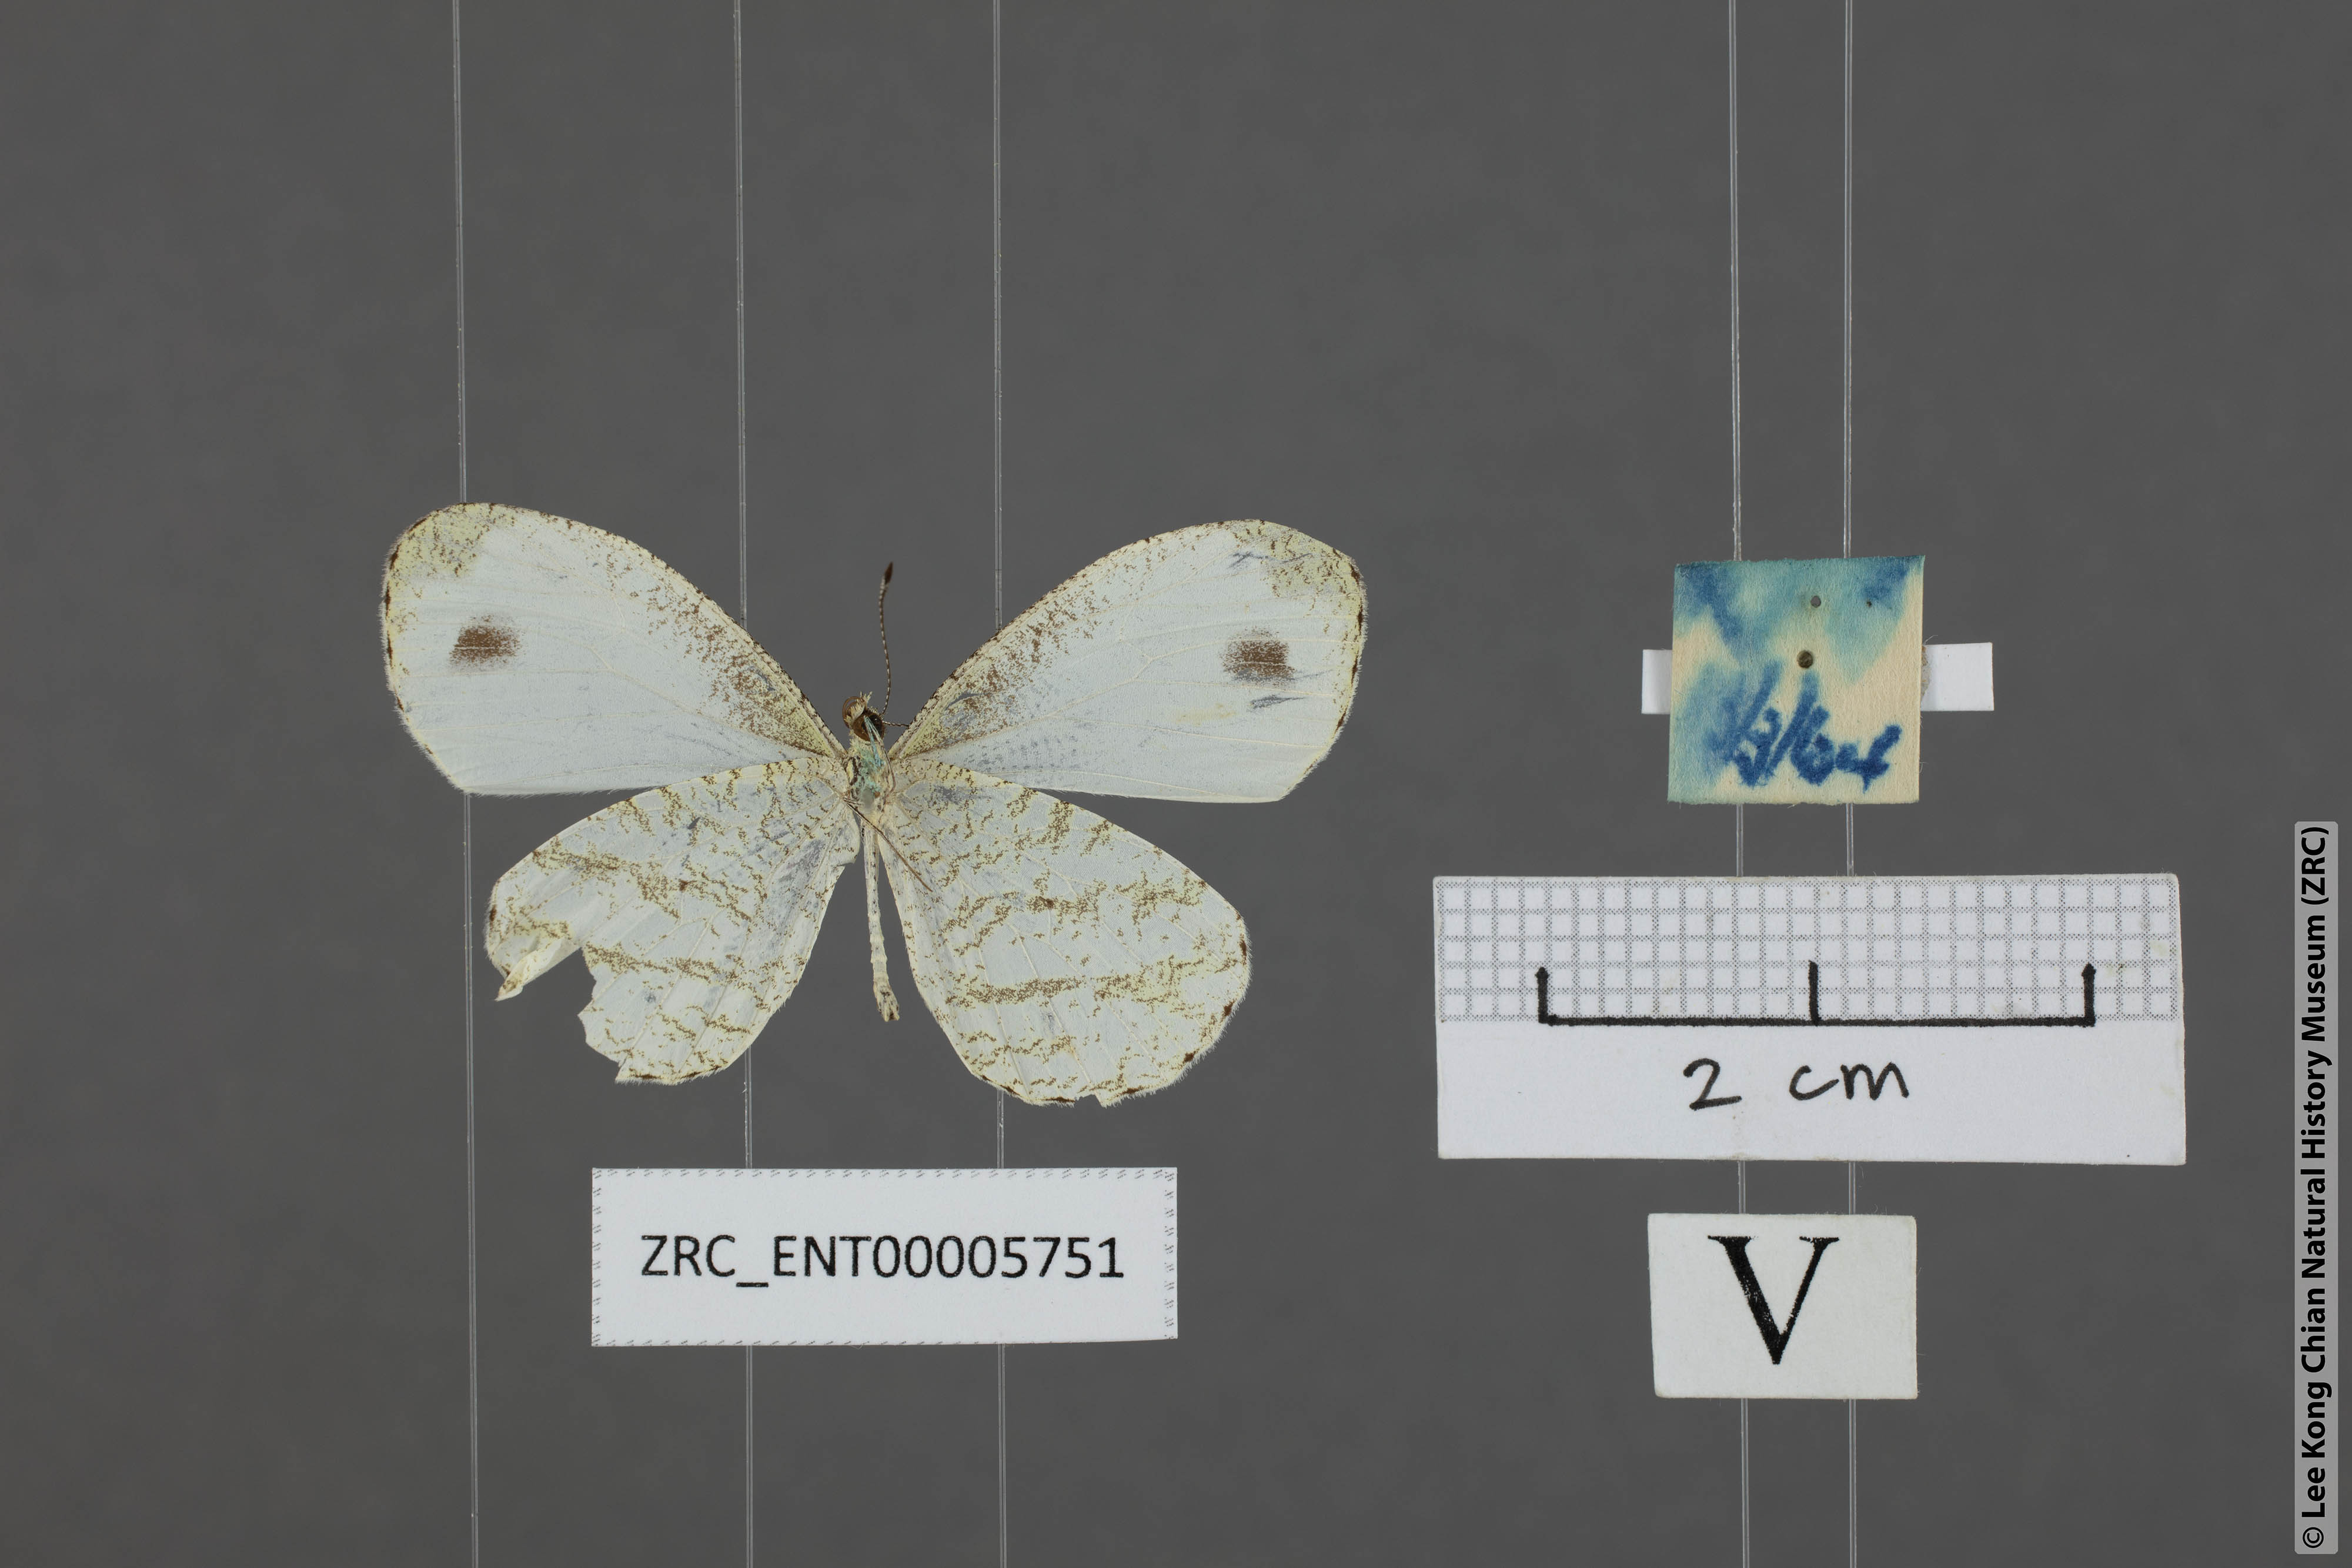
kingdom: Animalia
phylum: Arthropoda
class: Insecta
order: Lepidoptera
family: Pieridae
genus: Leptosia
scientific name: Leptosia nina
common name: Psyche
